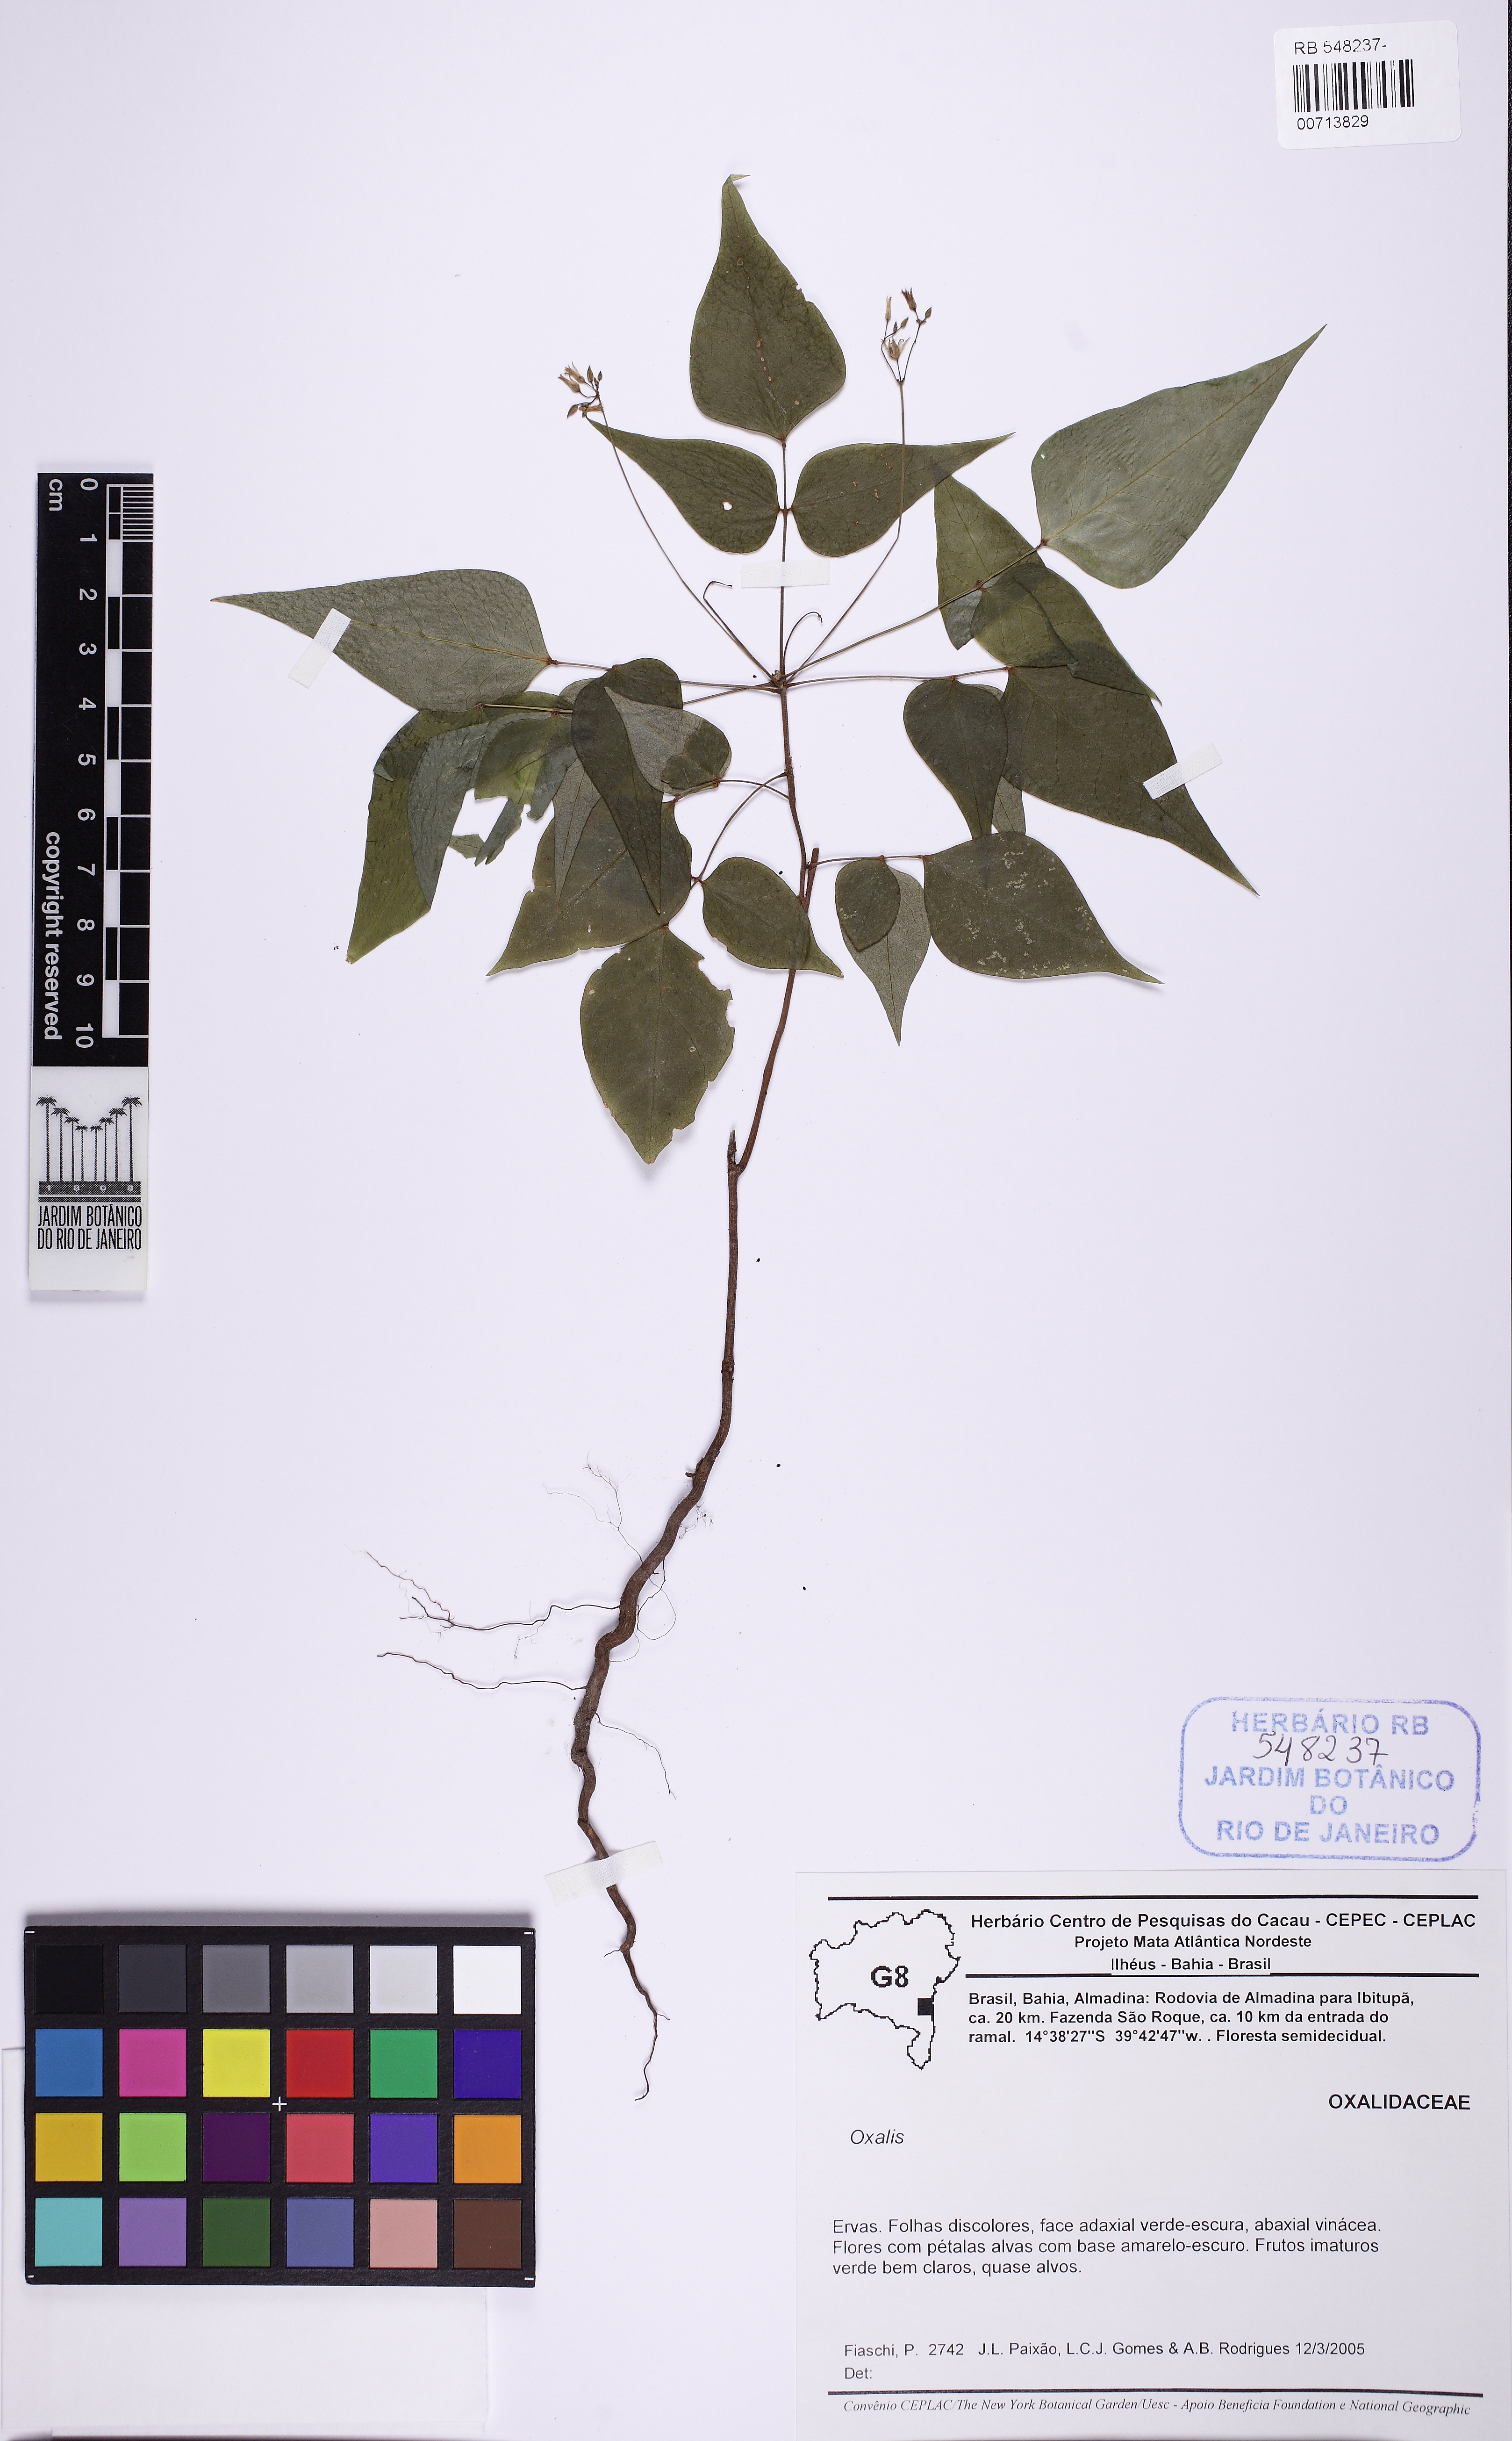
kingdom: Plantae
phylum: Tracheophyta
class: Magnoliopsida
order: Oxalidales
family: Oxalidaceae
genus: Oxalis
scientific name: Oxalis
